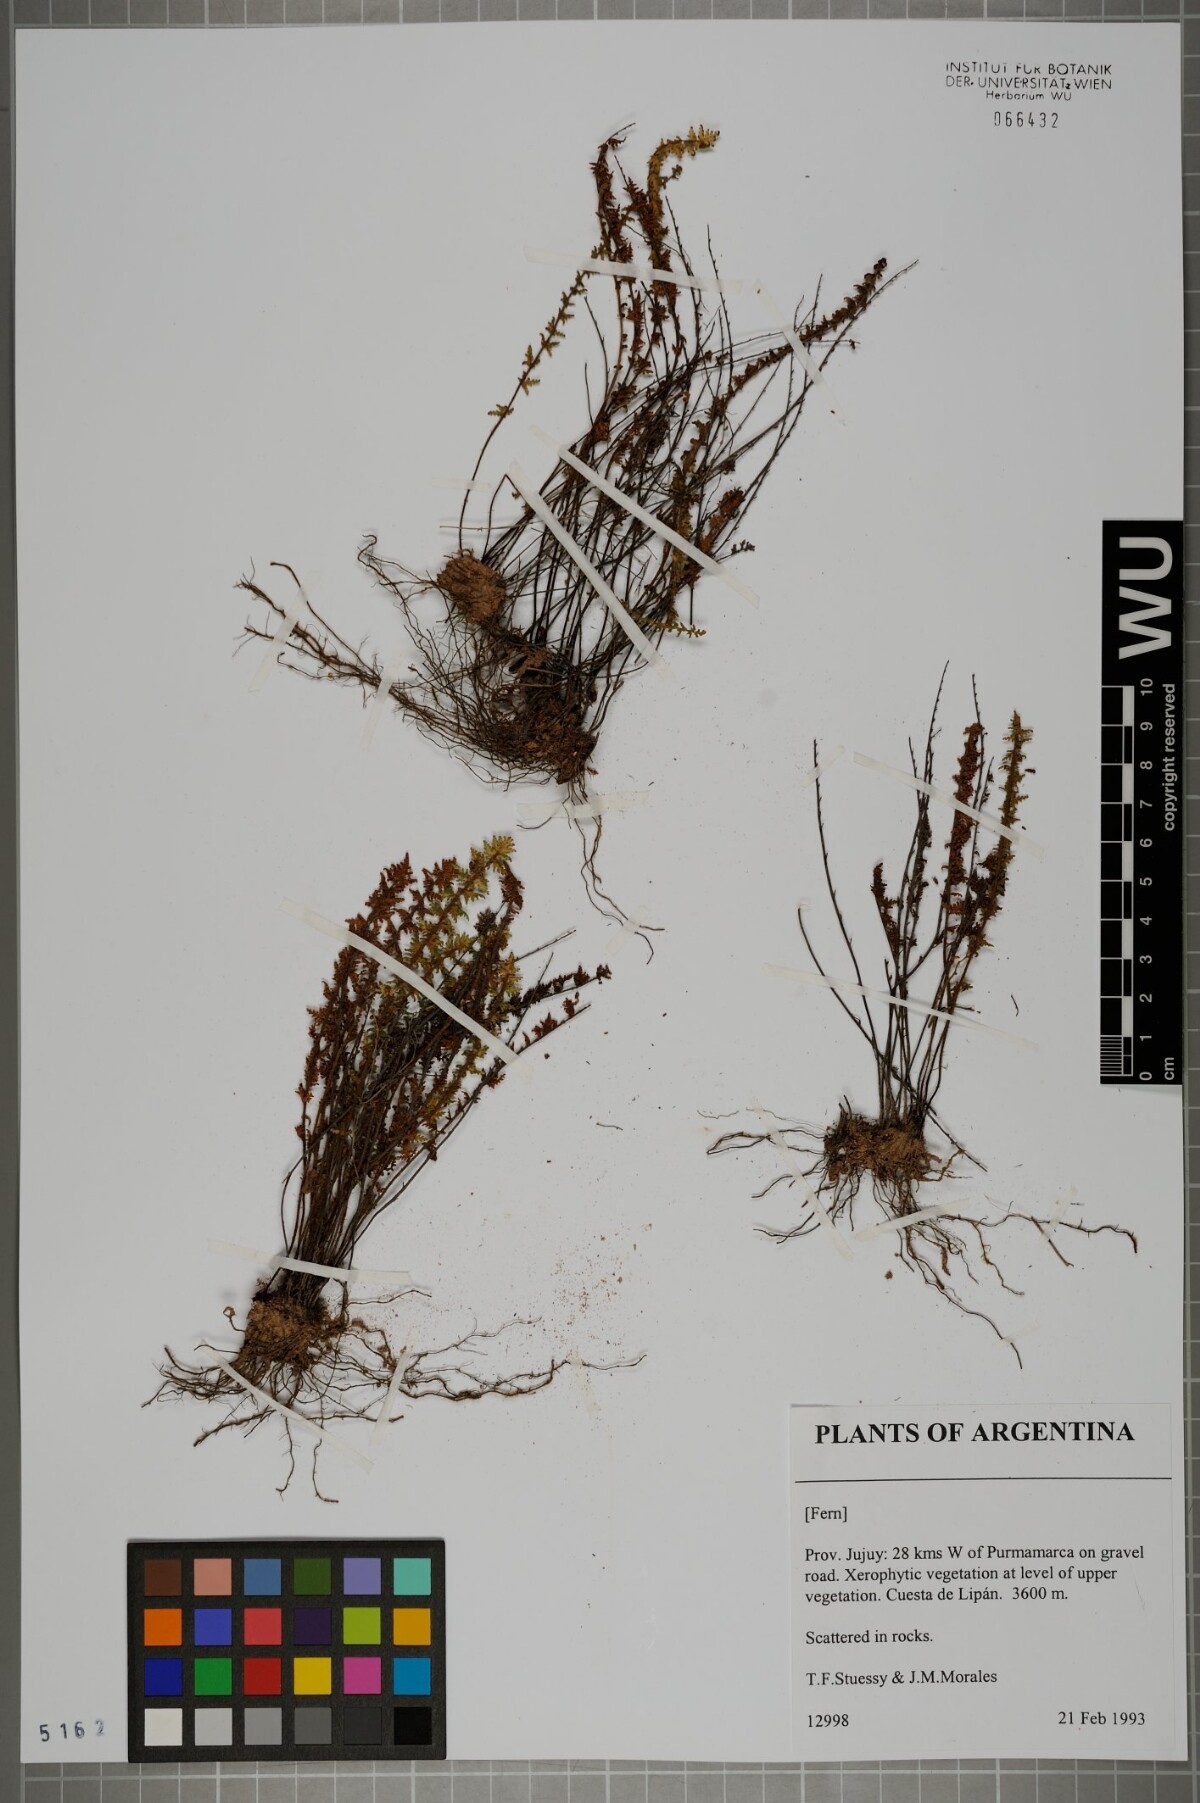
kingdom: Plantae
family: Pteridophyta
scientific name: Pteridophyta
